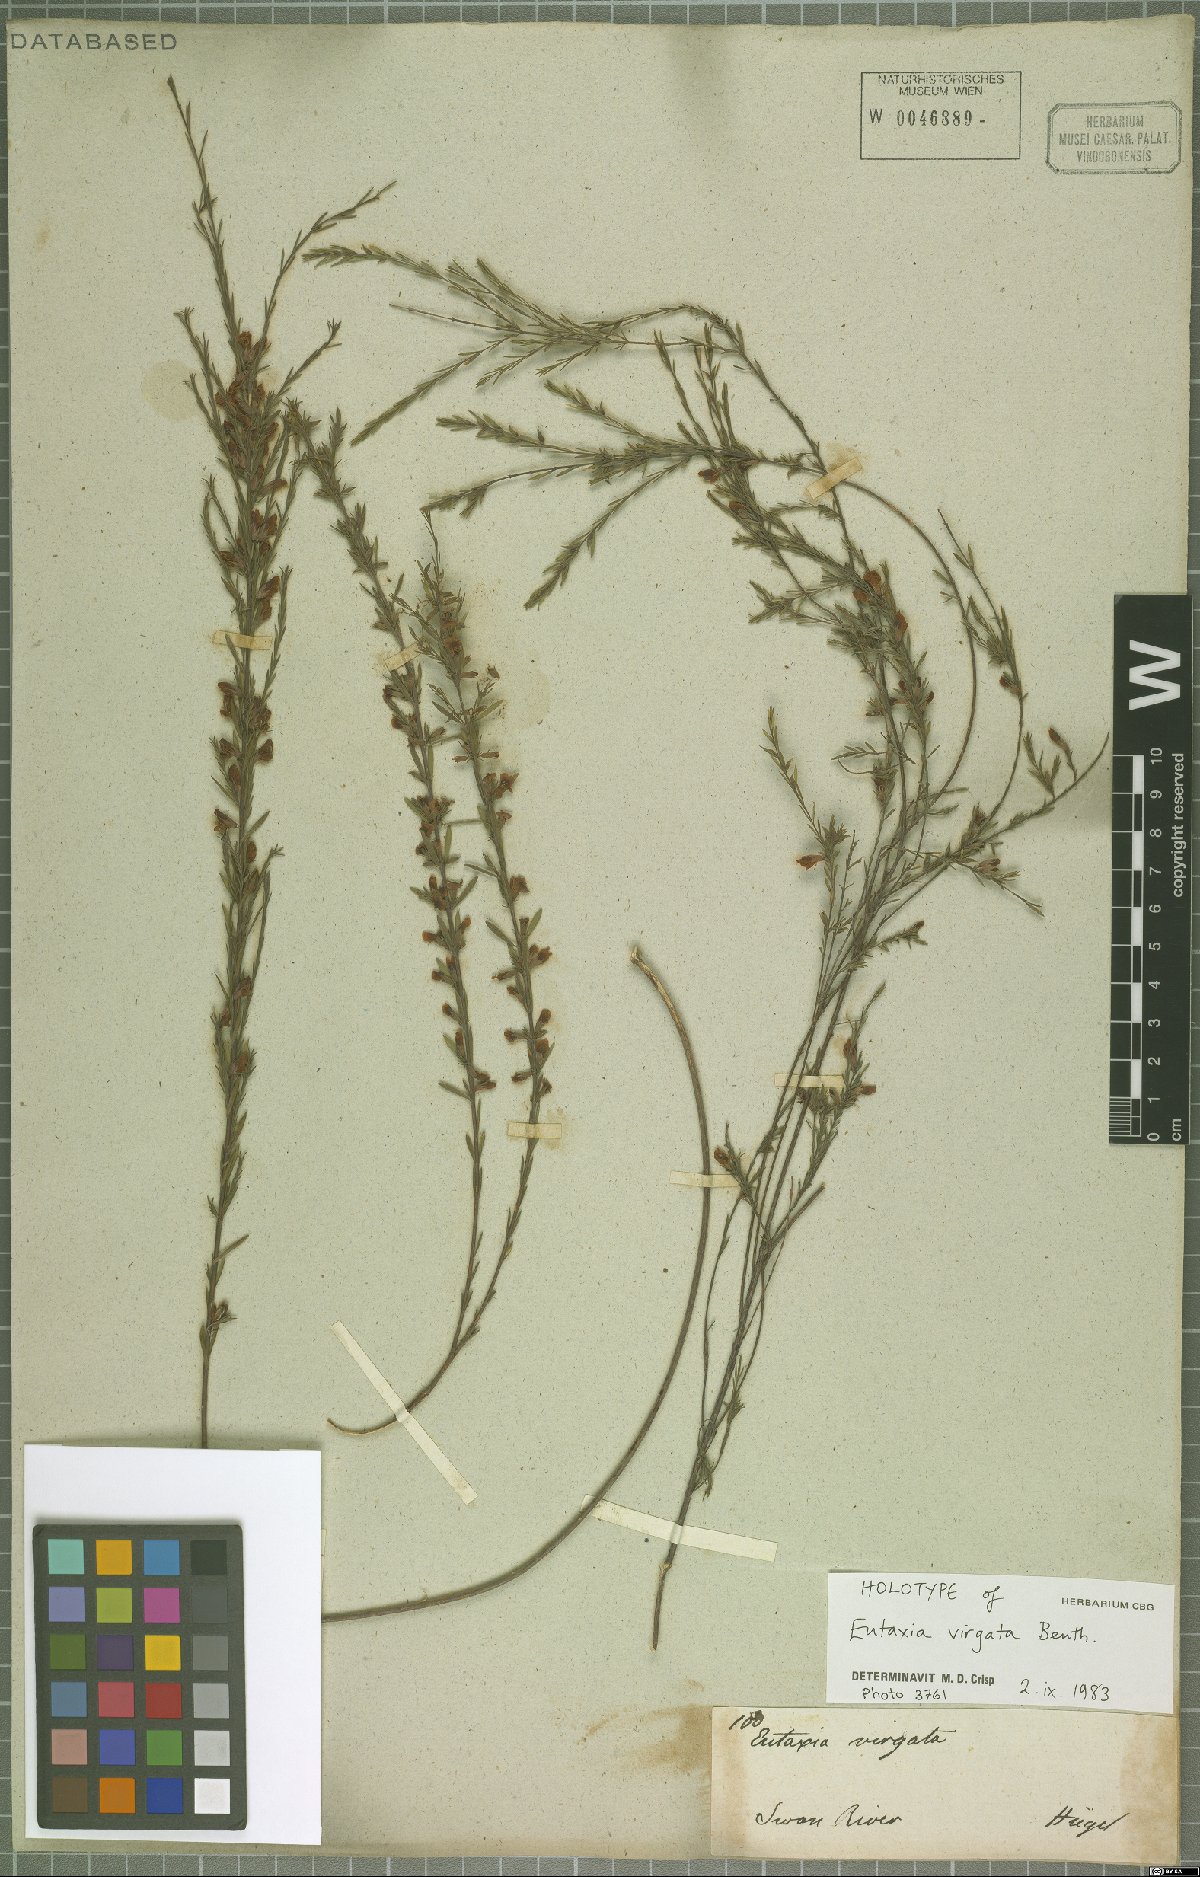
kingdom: Plantae
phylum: Tracheophyta
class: Magnoliopsida
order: Fabales
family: Fabaceae
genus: Eutaxia
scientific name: Eutaxia virgata
